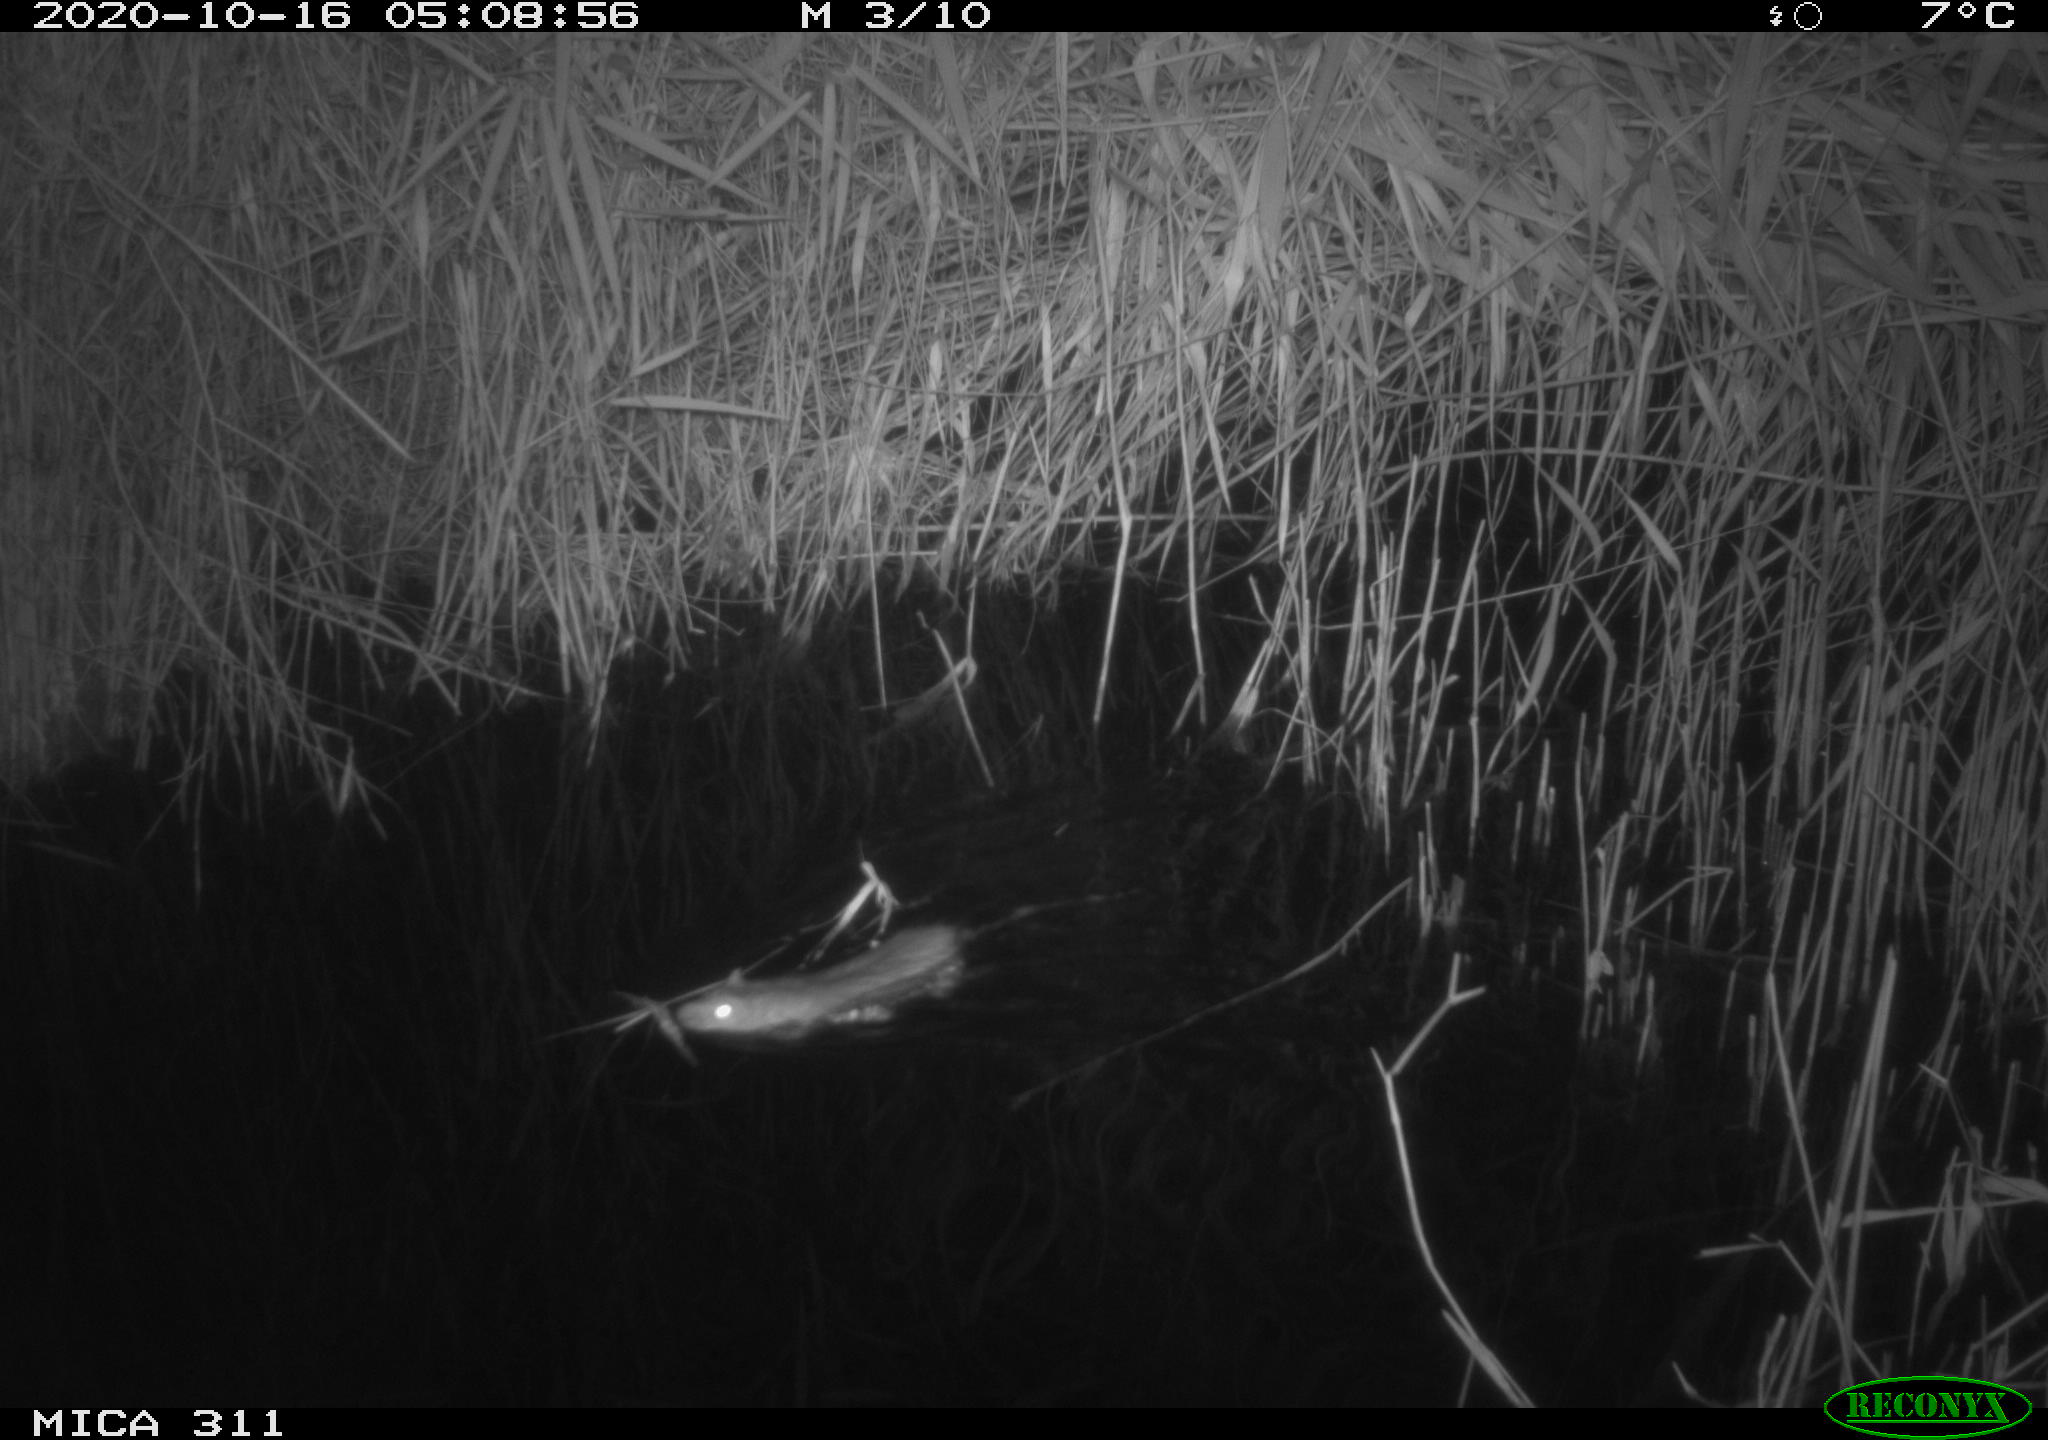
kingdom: Animalia
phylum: Chordata
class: Mammalia
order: Rodentia
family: Muridae
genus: Rattus
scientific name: Rattus norvegicus
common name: Brown rat
